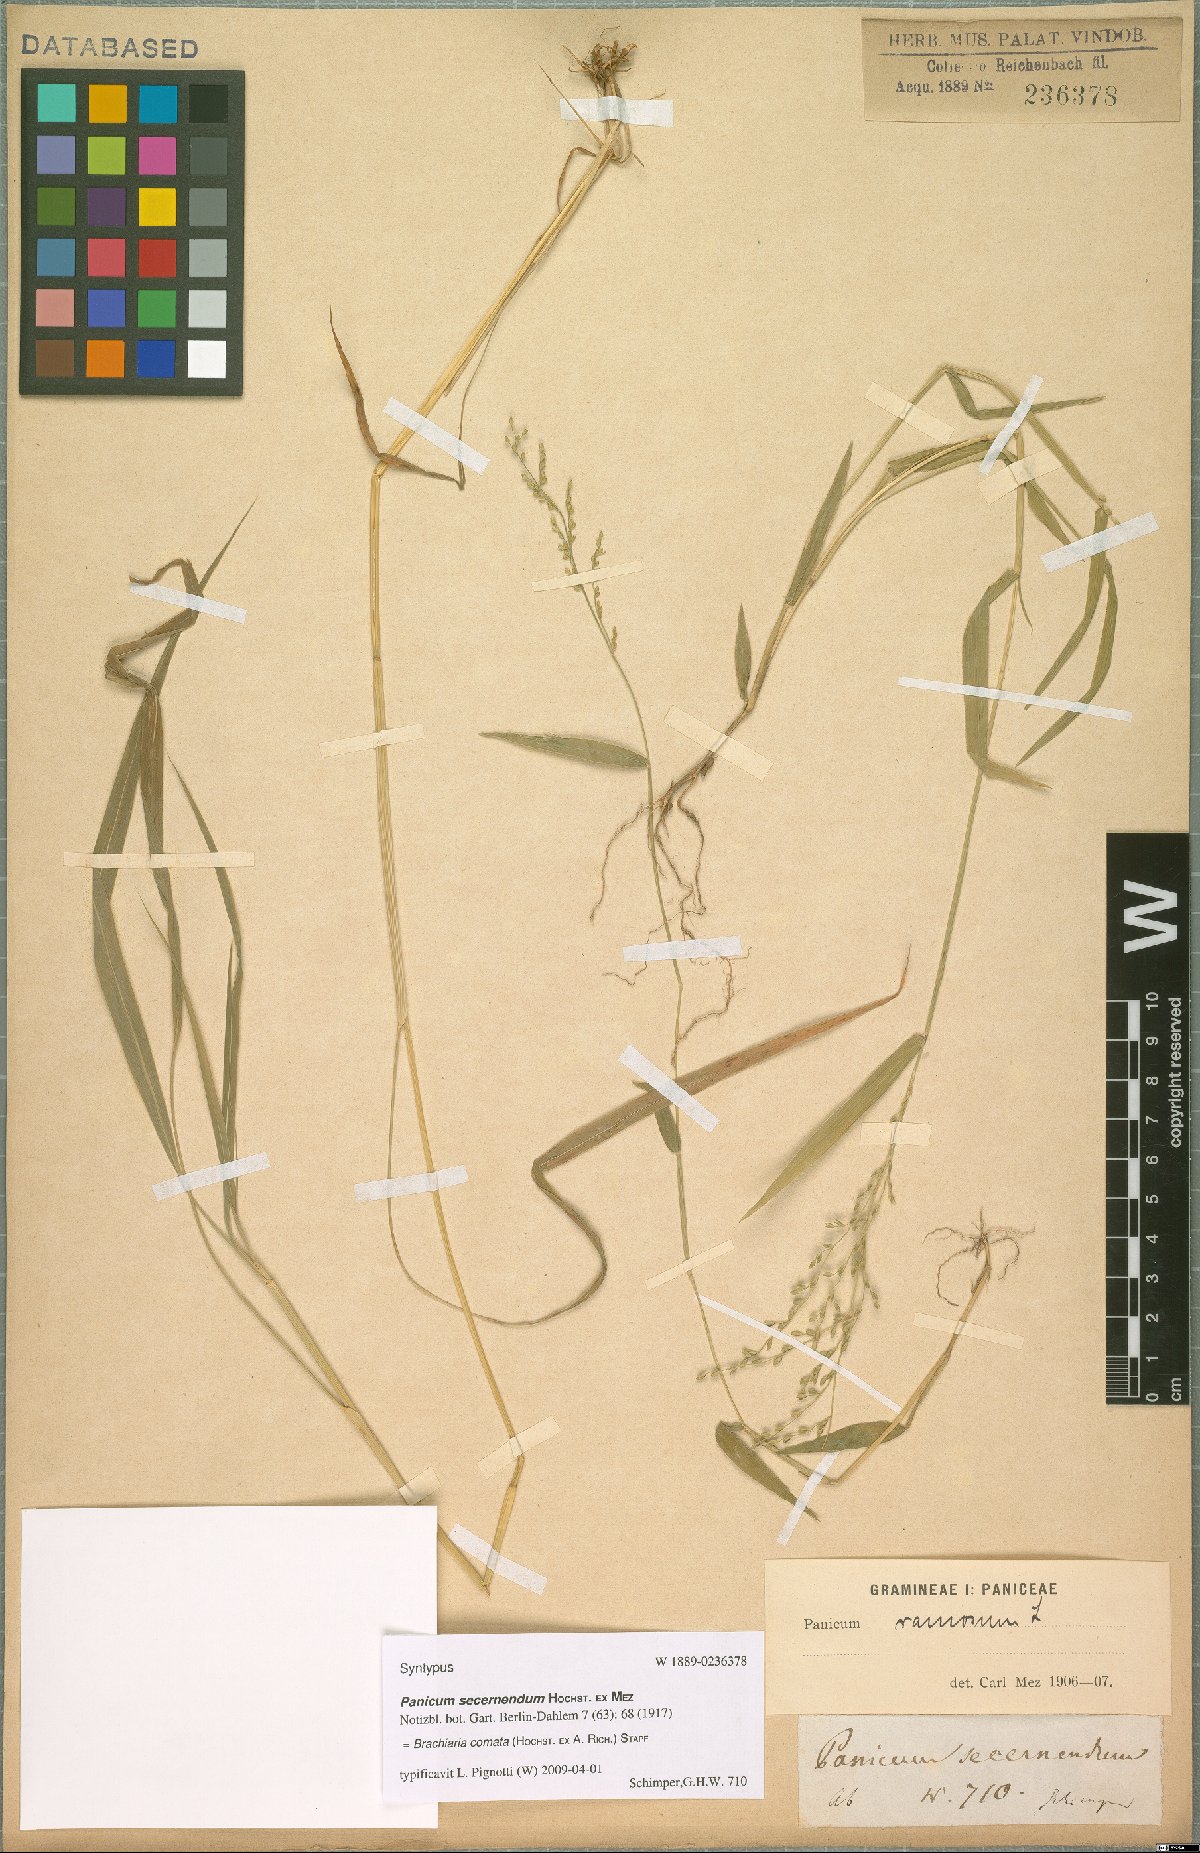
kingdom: Plantae
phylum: Tracheophyta
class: Liliopsida
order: Poales
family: Poaceae
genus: Urochloa
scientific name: Urochloa comata
